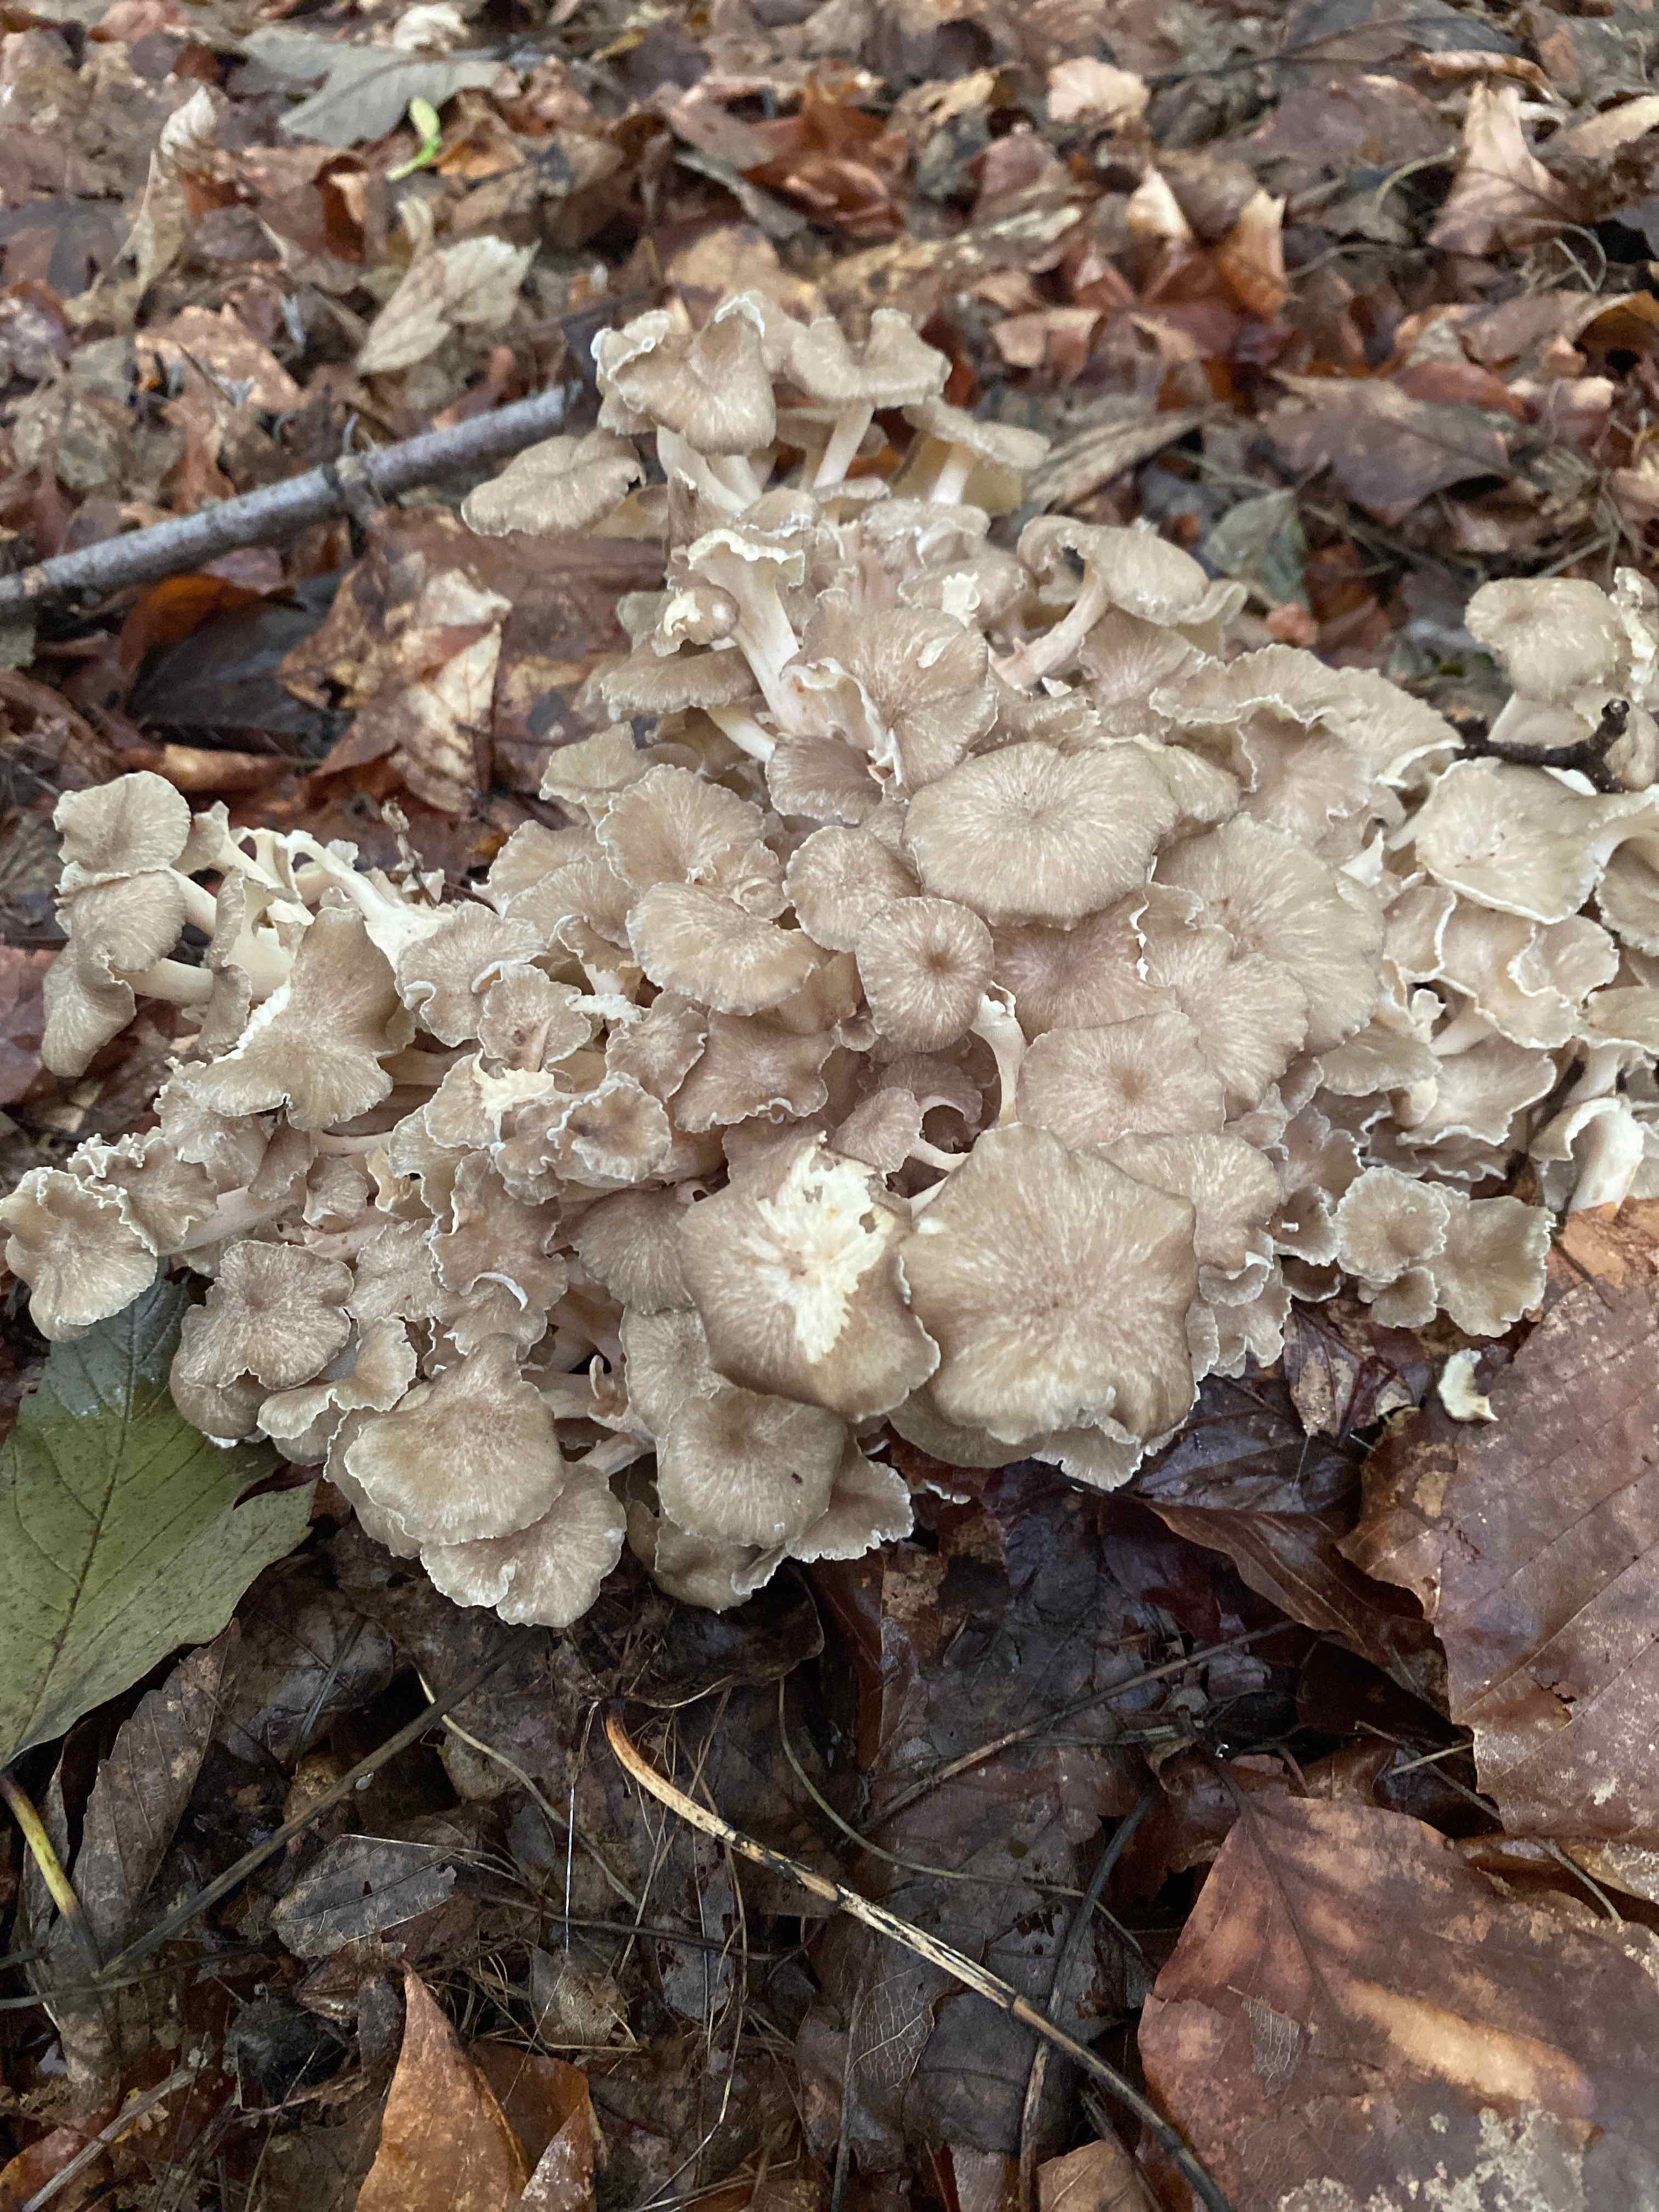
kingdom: Fungi
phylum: Basidiomycota
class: Agaricomycetes
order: Polyporales
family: Polyporaceae
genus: Polyporus
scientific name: Polyporus umbellatus
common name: skærmformet stilkporesvamp
